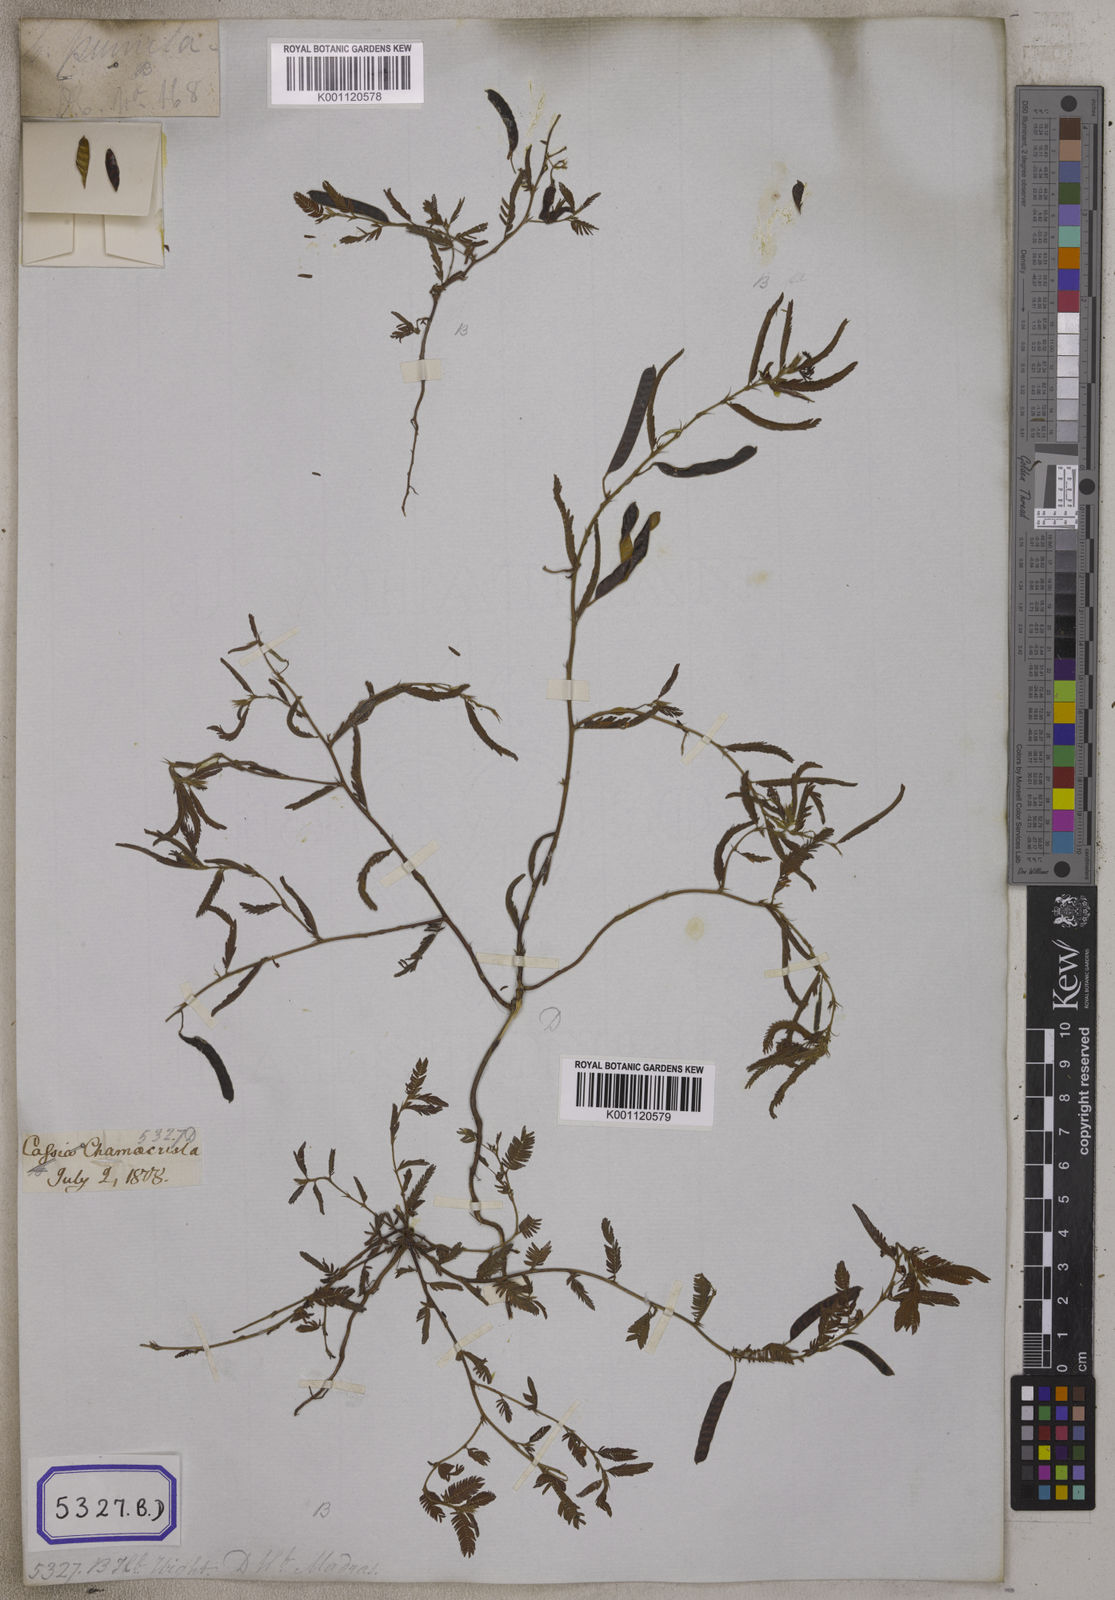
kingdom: Plantae
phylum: Tracheophyta
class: Magnoliopsida
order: Fabales
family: Fabaceae
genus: Chamaecrista
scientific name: Chamaecrista pumila
